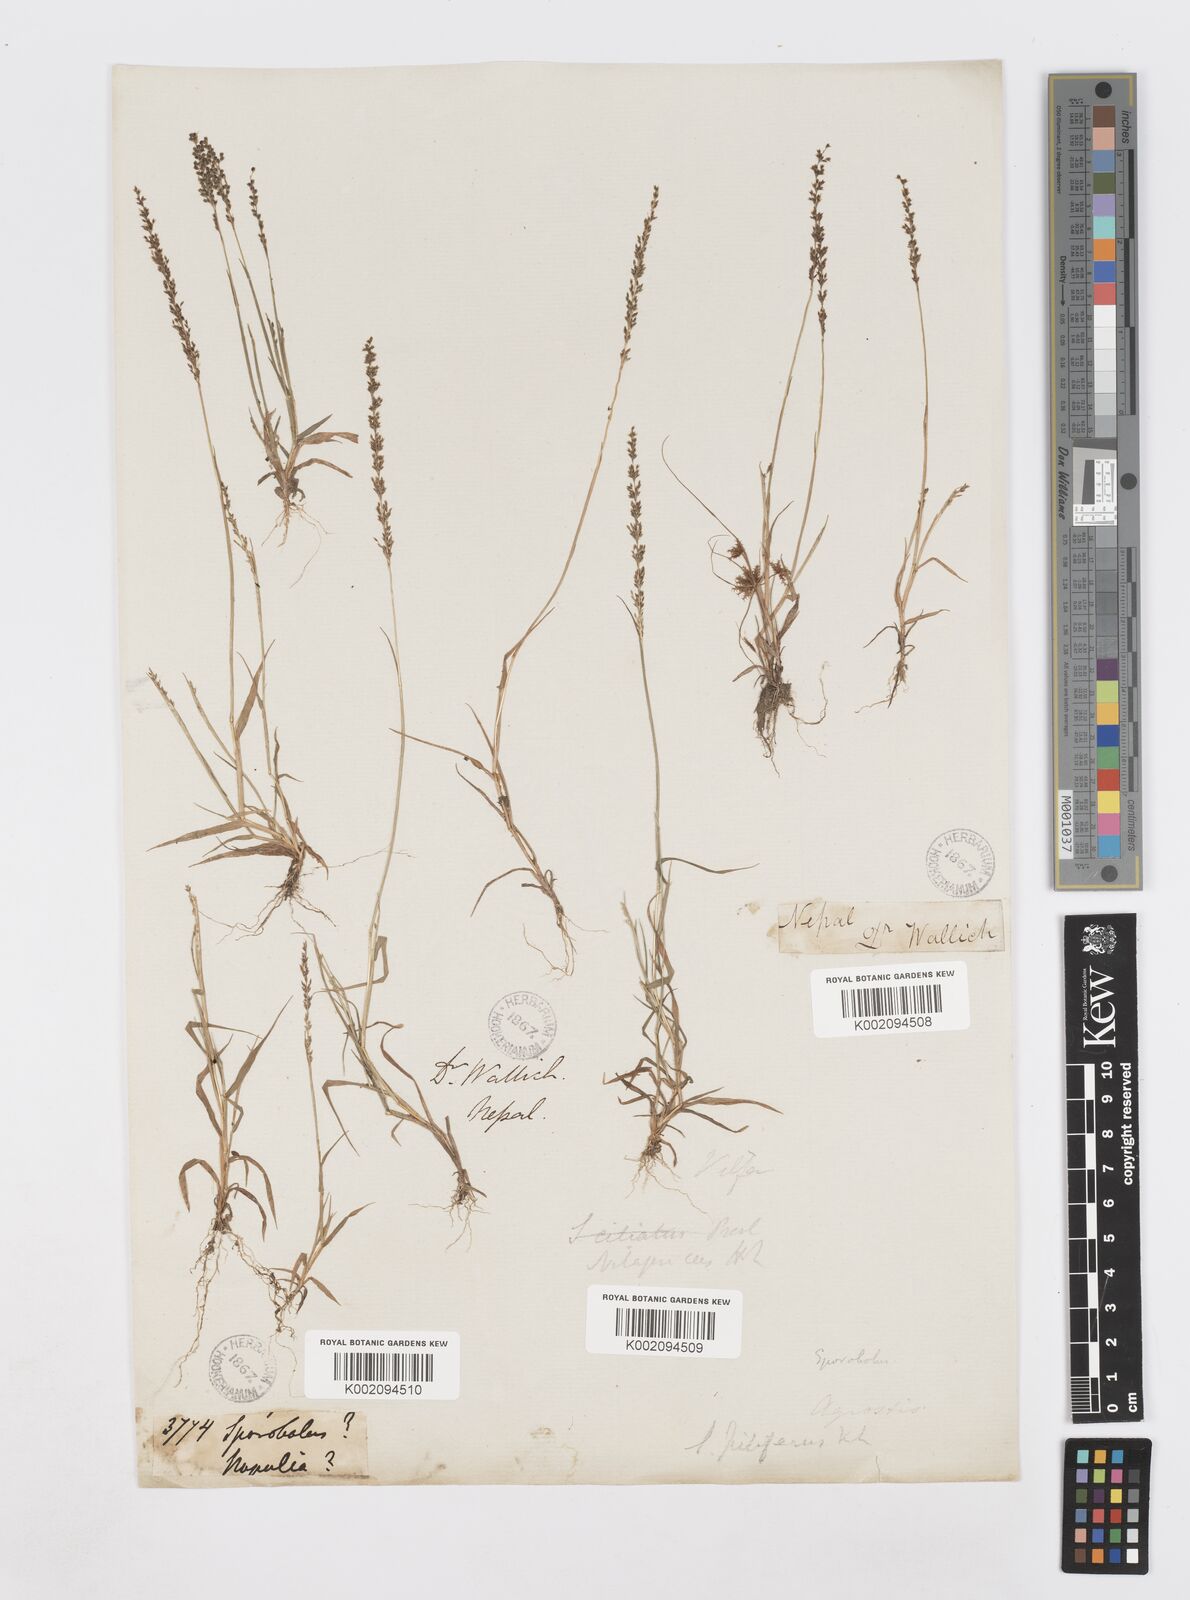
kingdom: Plantae
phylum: Tracheophyta
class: Liliopsida
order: Poales
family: Poaceae
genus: Sporobolus
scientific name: Sporobolus pilifer
